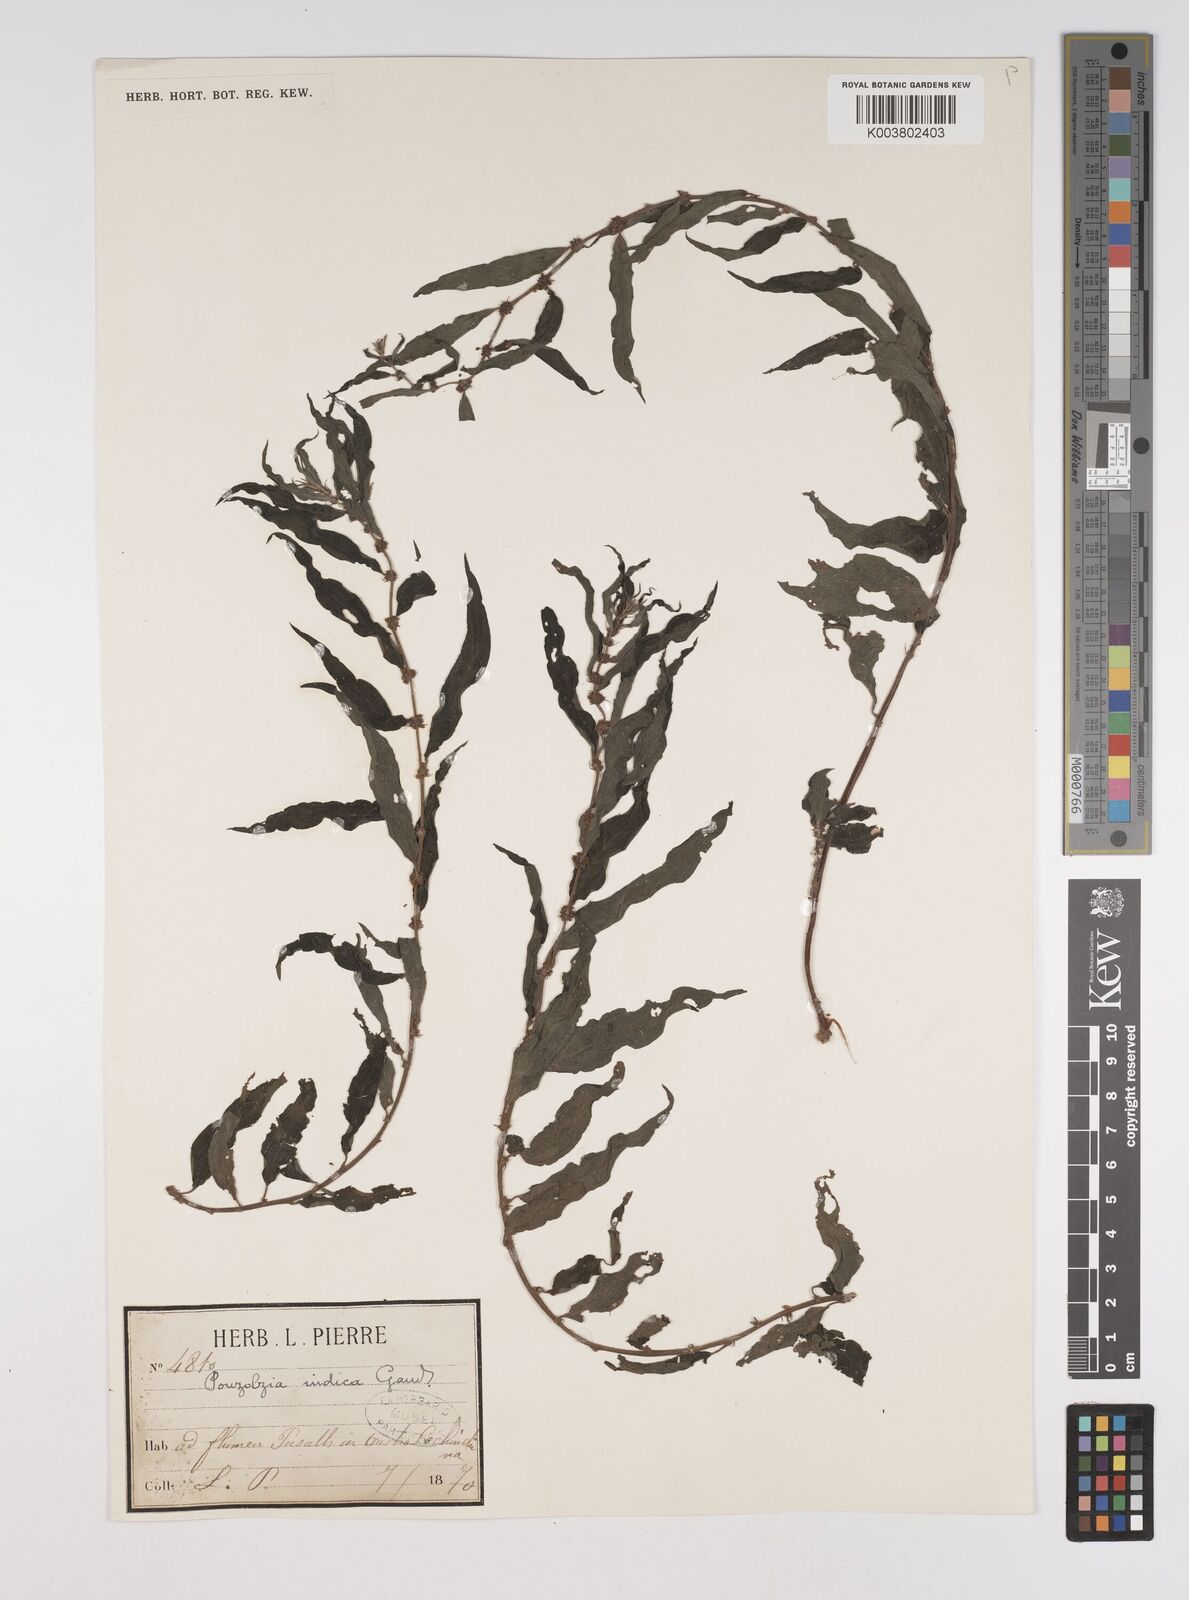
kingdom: Plantae
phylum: Tracheophyta
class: Magnoliopsida
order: Rosales
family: Urticaceae
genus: Pouzolzia
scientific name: Pouzolzia zeylanica
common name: Graceful pouzolzsbush
